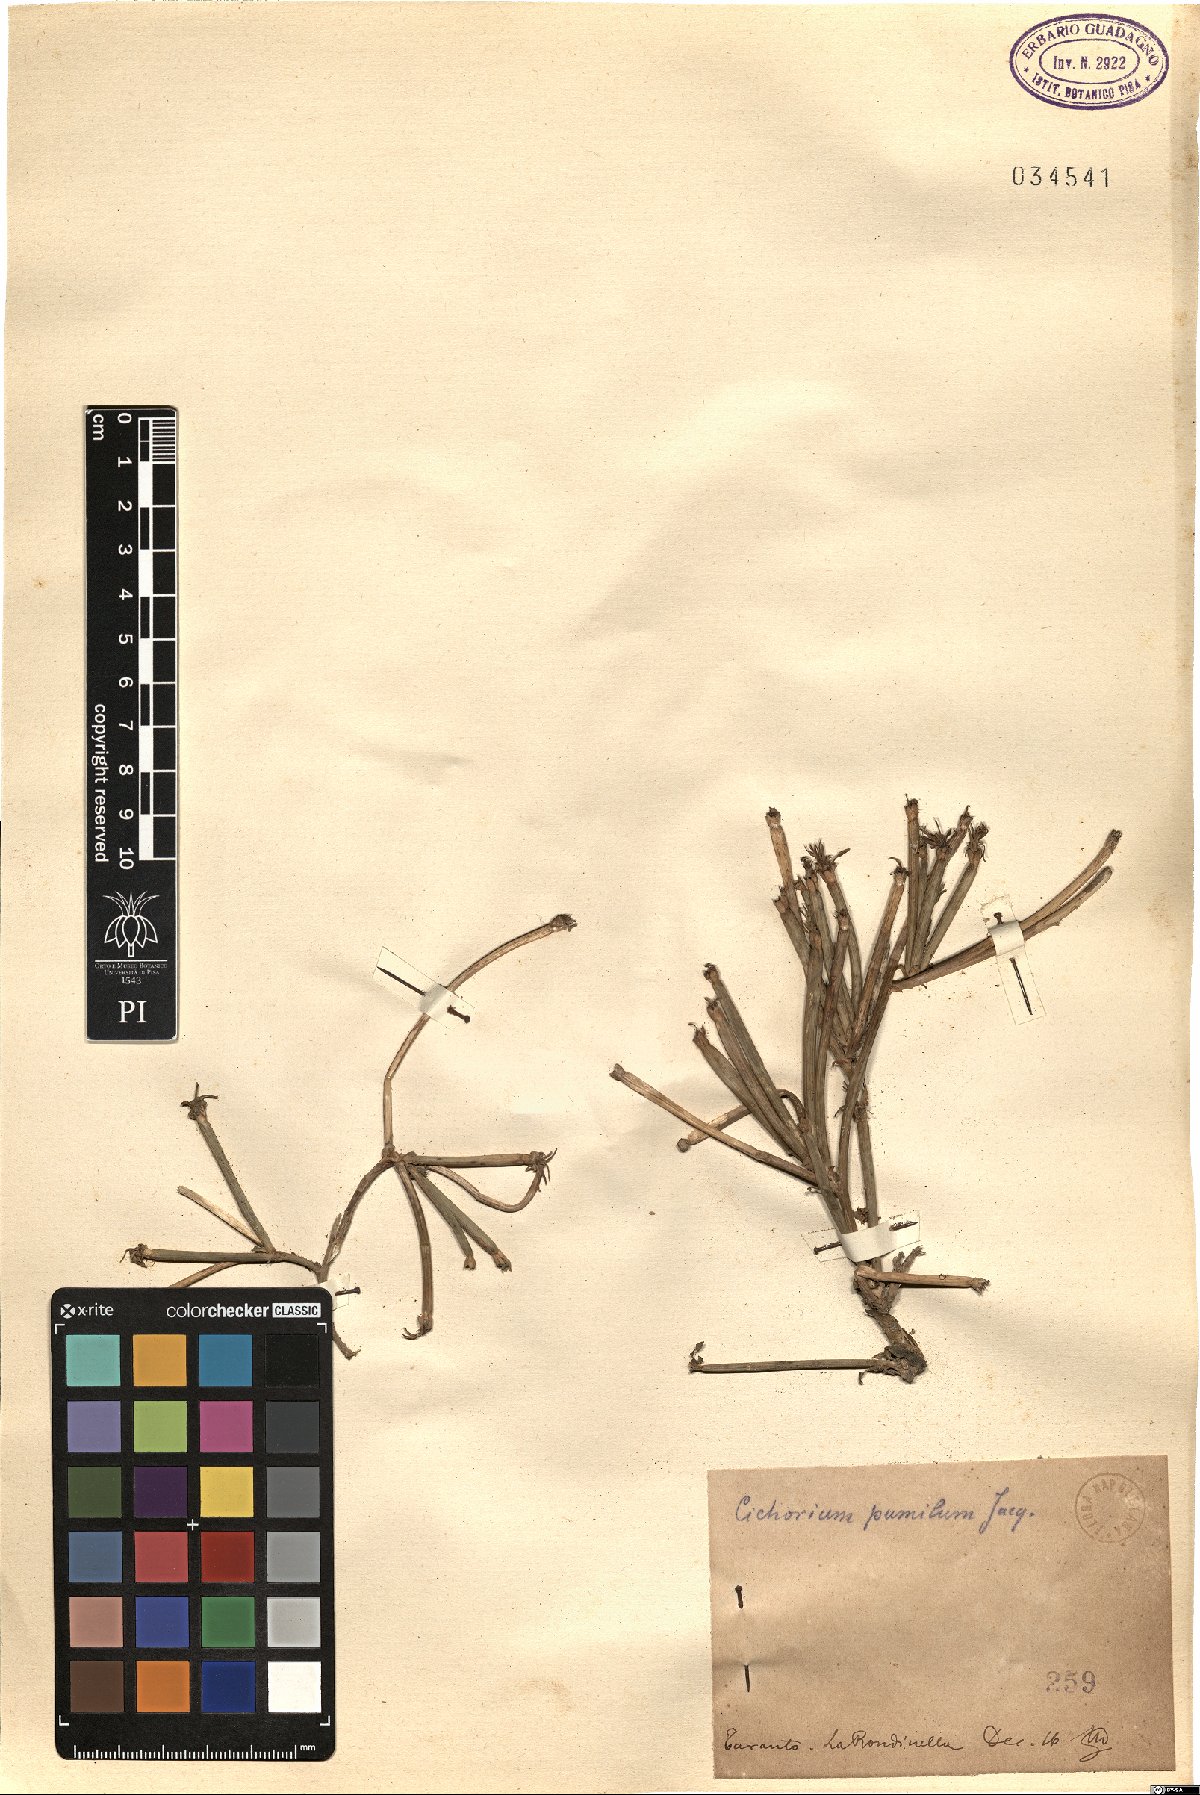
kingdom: Plantae
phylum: Tracheophyta
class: Magnoliopsida
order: Asterales
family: Asteraceae
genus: Cichorium
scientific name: Cichorium pumilum
